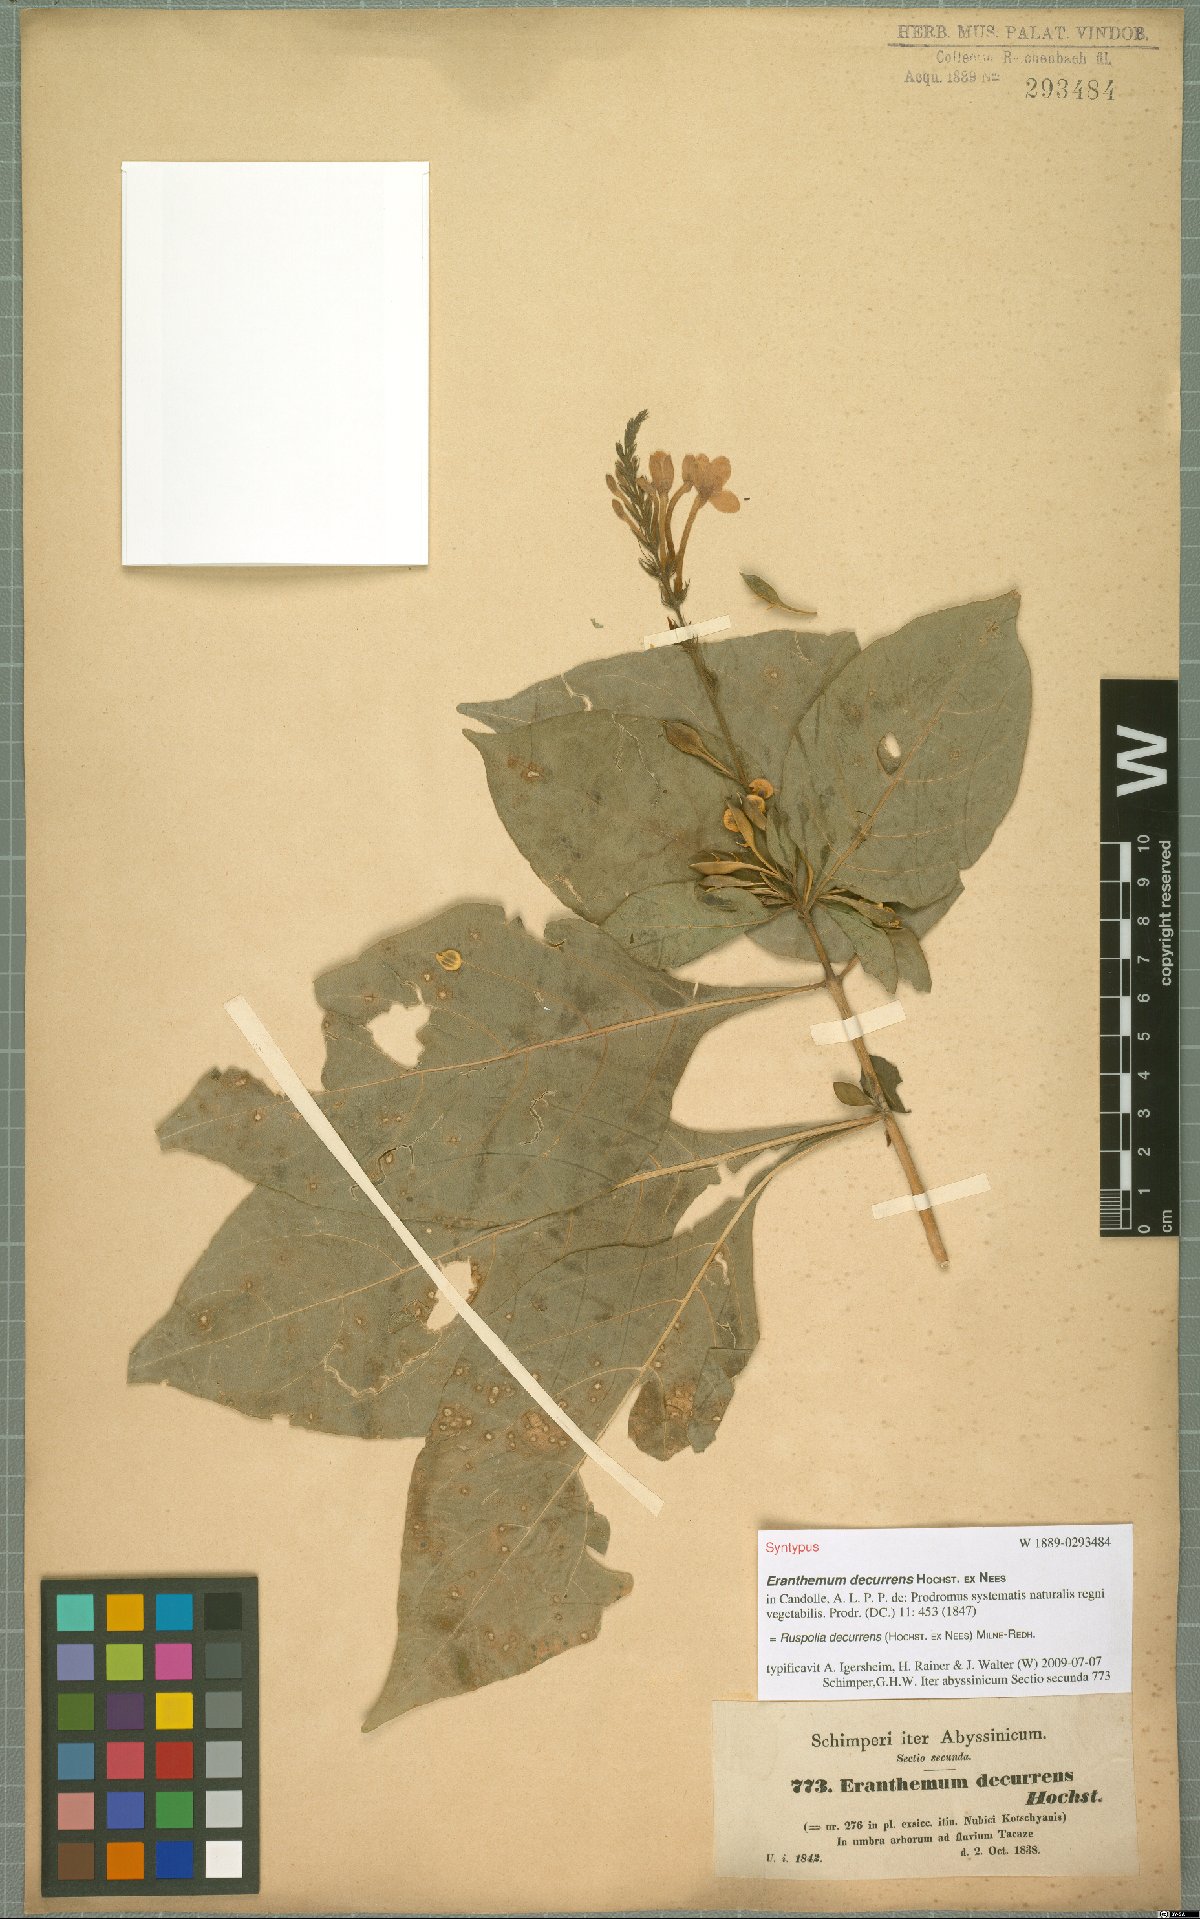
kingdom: Plantae
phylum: Tracheophyta
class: Magnoliopsida
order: Lamiales
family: Acanthaceae
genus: Ruspolia
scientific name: Ruspolia decurrens
